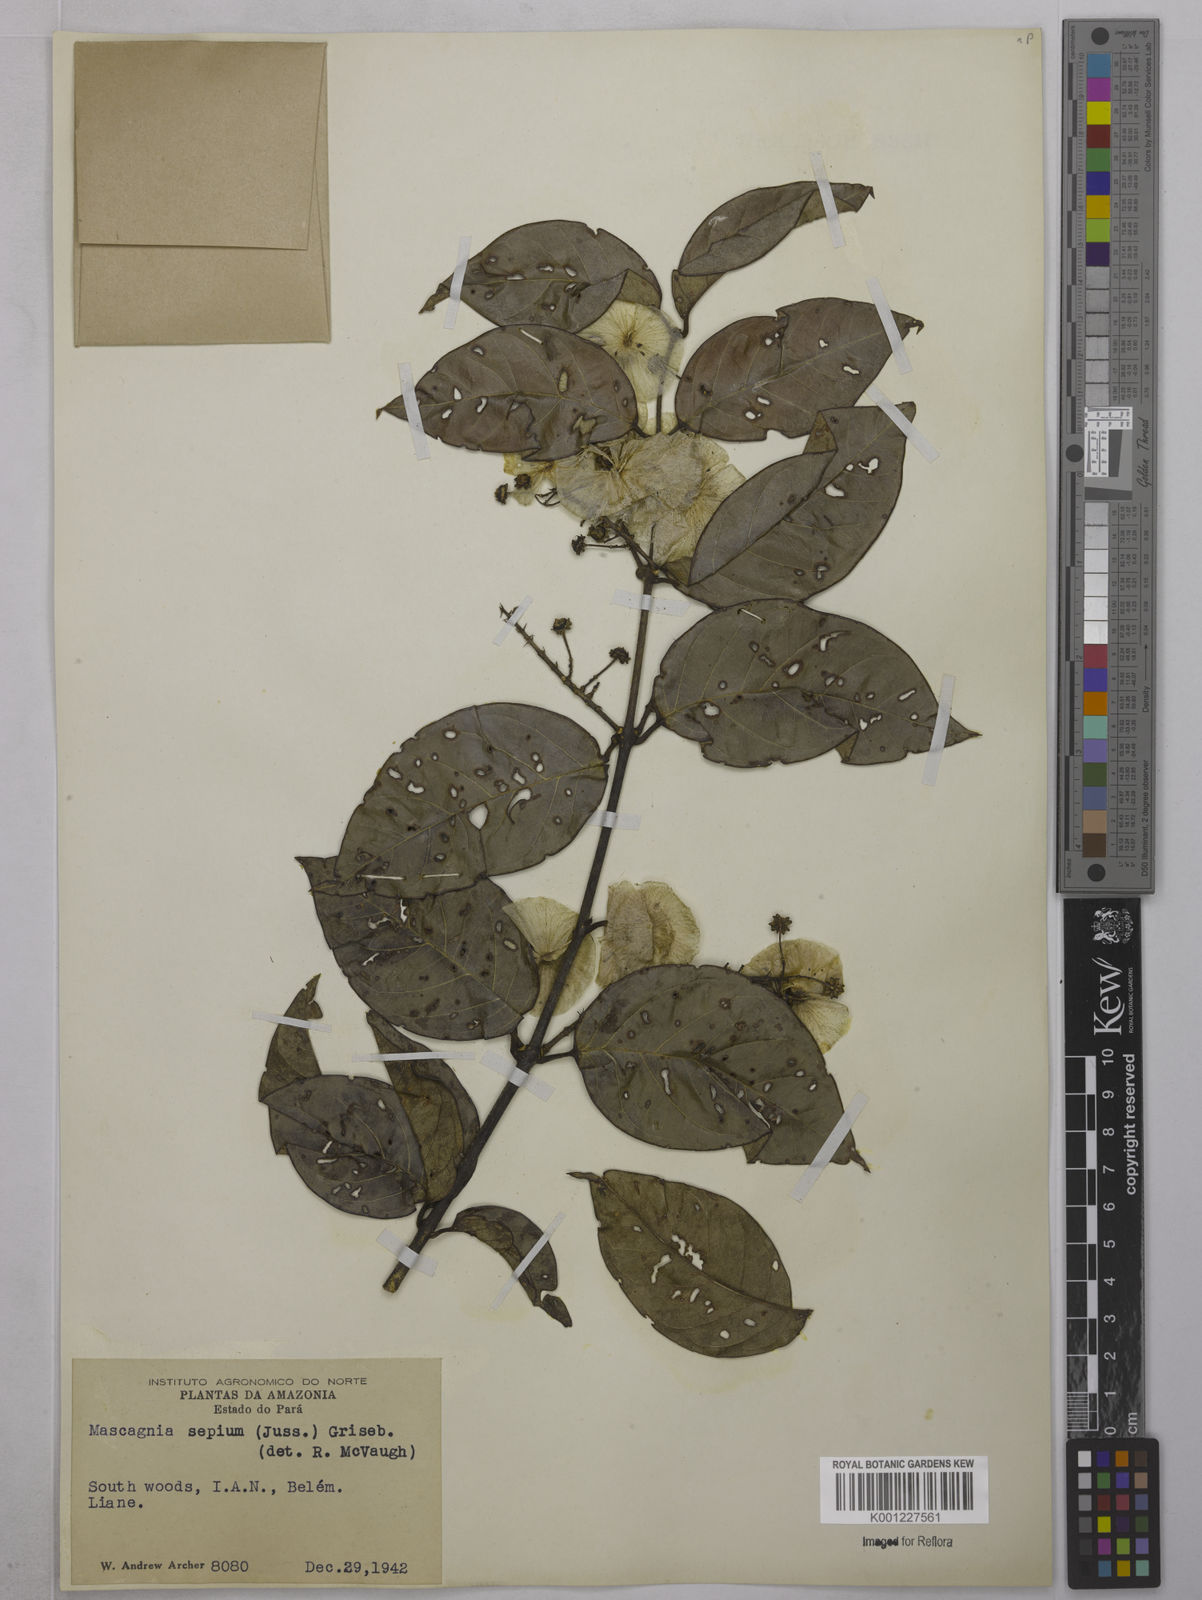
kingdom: Plantae
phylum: Tracheophyta
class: Magnoliopsida
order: Malpighiales
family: Malpighiaceae
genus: Mascagnia
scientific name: Mascagnia sepium
